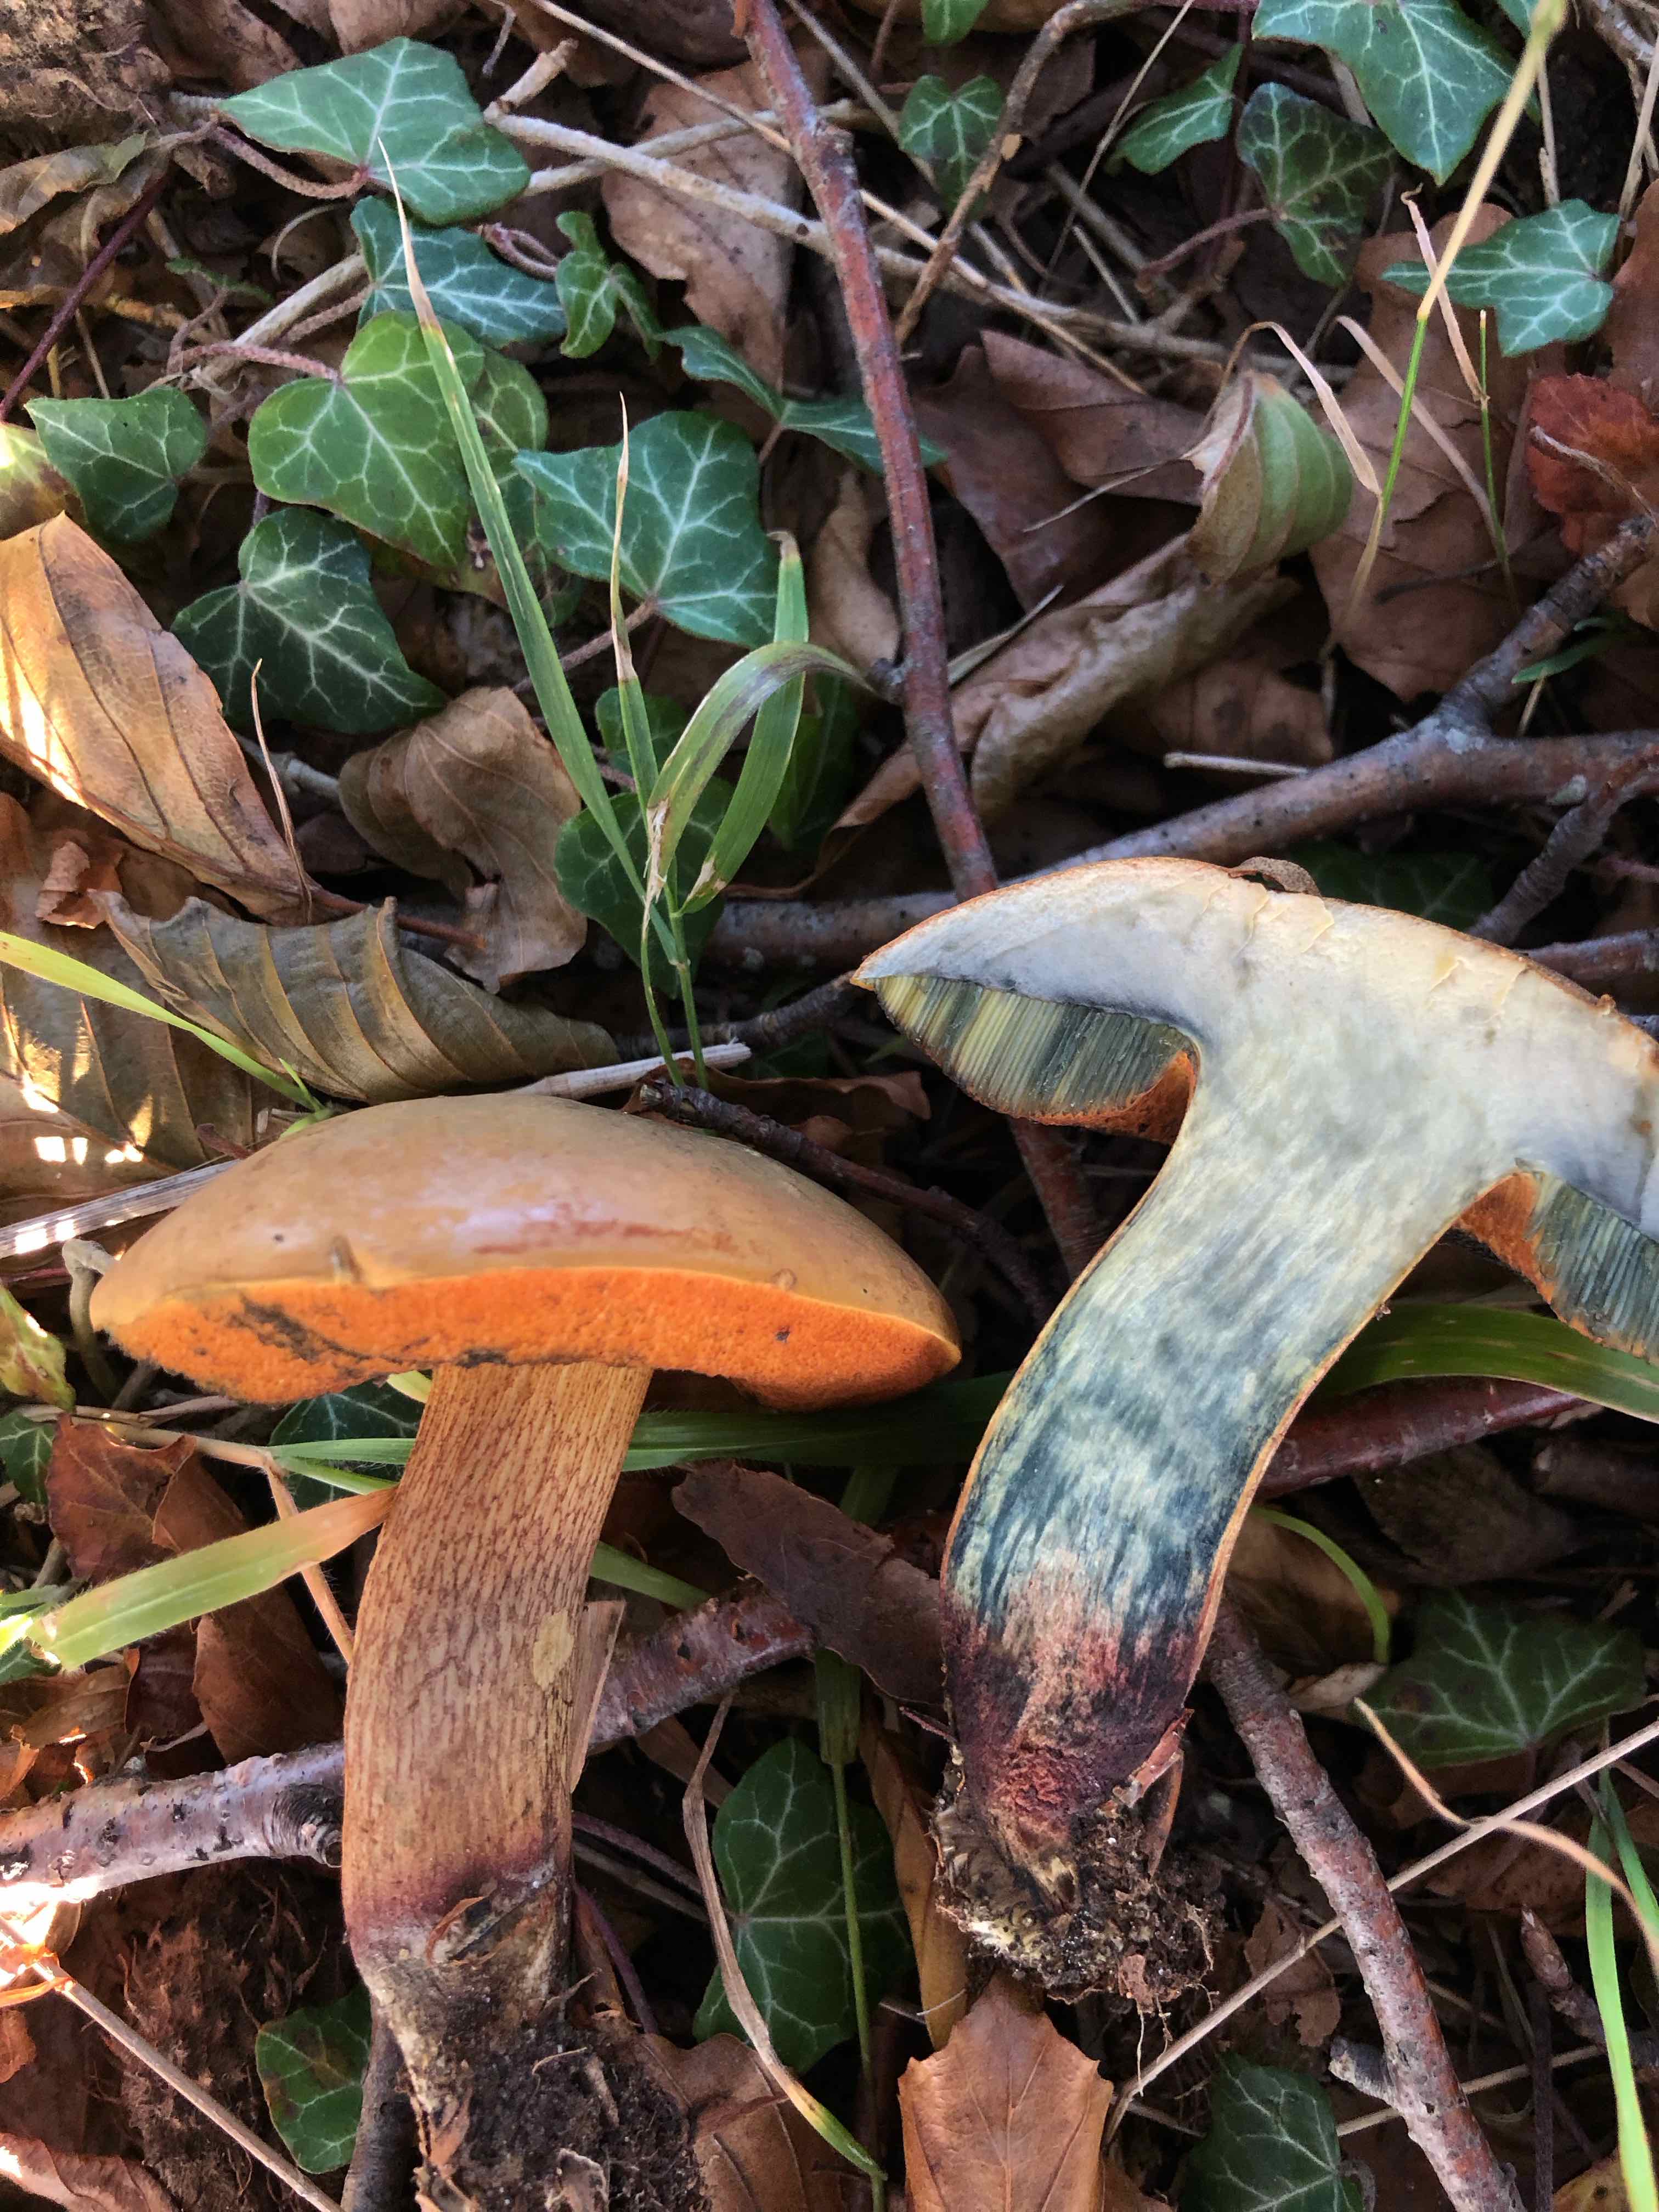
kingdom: Fungi
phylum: Basidiomycota
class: Agaricomycetes
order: Boletales
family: Boletaceae
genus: Suillellus
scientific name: Suillellus luridus
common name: netstokket indigorørhat
